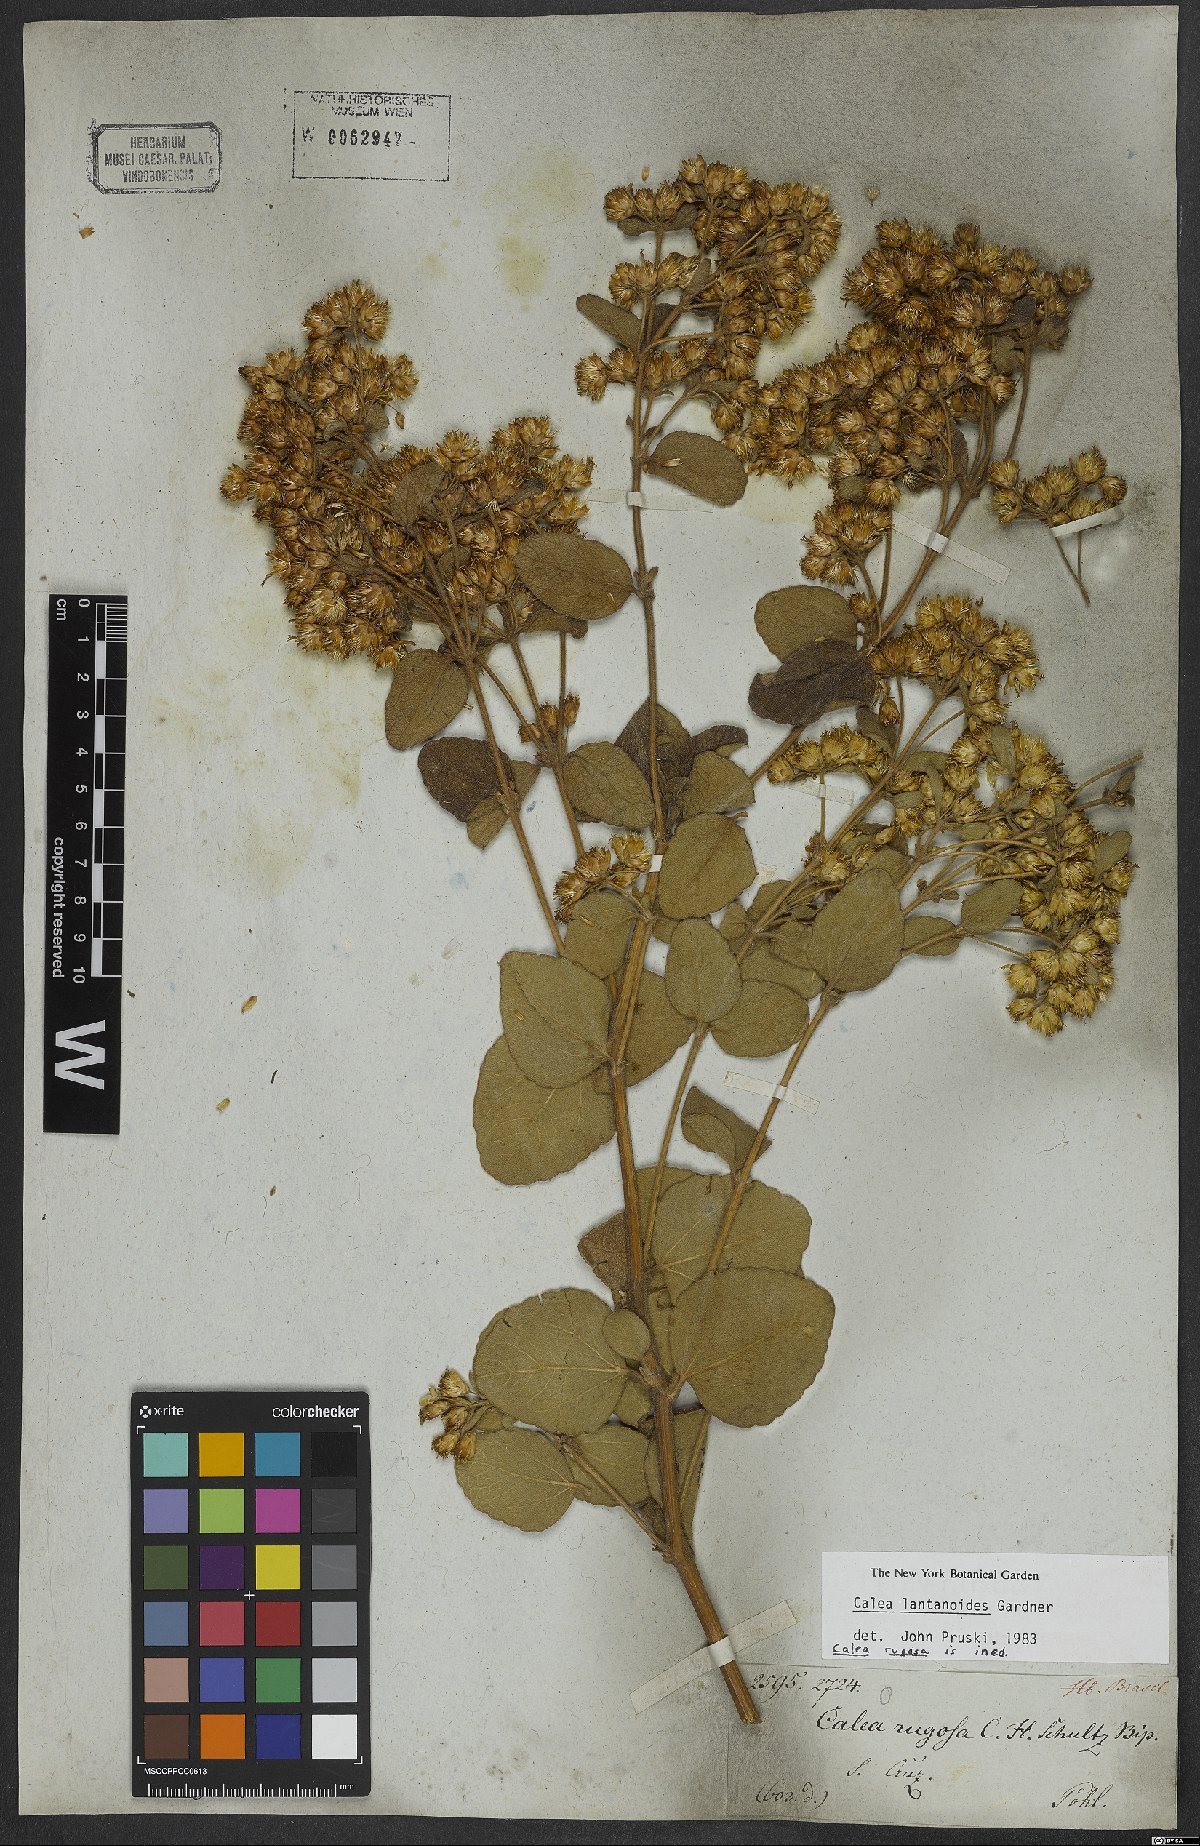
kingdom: Plantae
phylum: Tracheophyta
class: Magnoliopsida
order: Asterales
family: Asteraceae
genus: Calea
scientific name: Calea lantanoides
